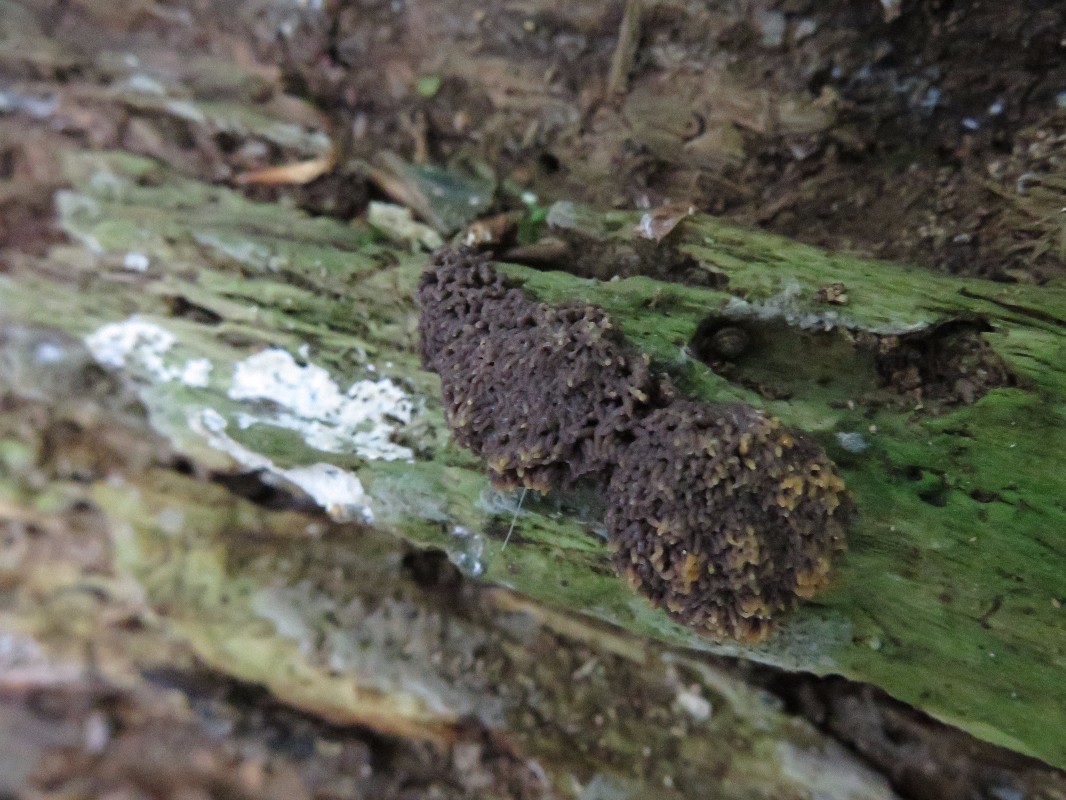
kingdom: Protozoa
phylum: Mycetozoa
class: Myxomycetes
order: Cribrariales
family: Tubiferaceae
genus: Tubifera
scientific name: Tubifera ferruginosa
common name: kanel-støvrør
